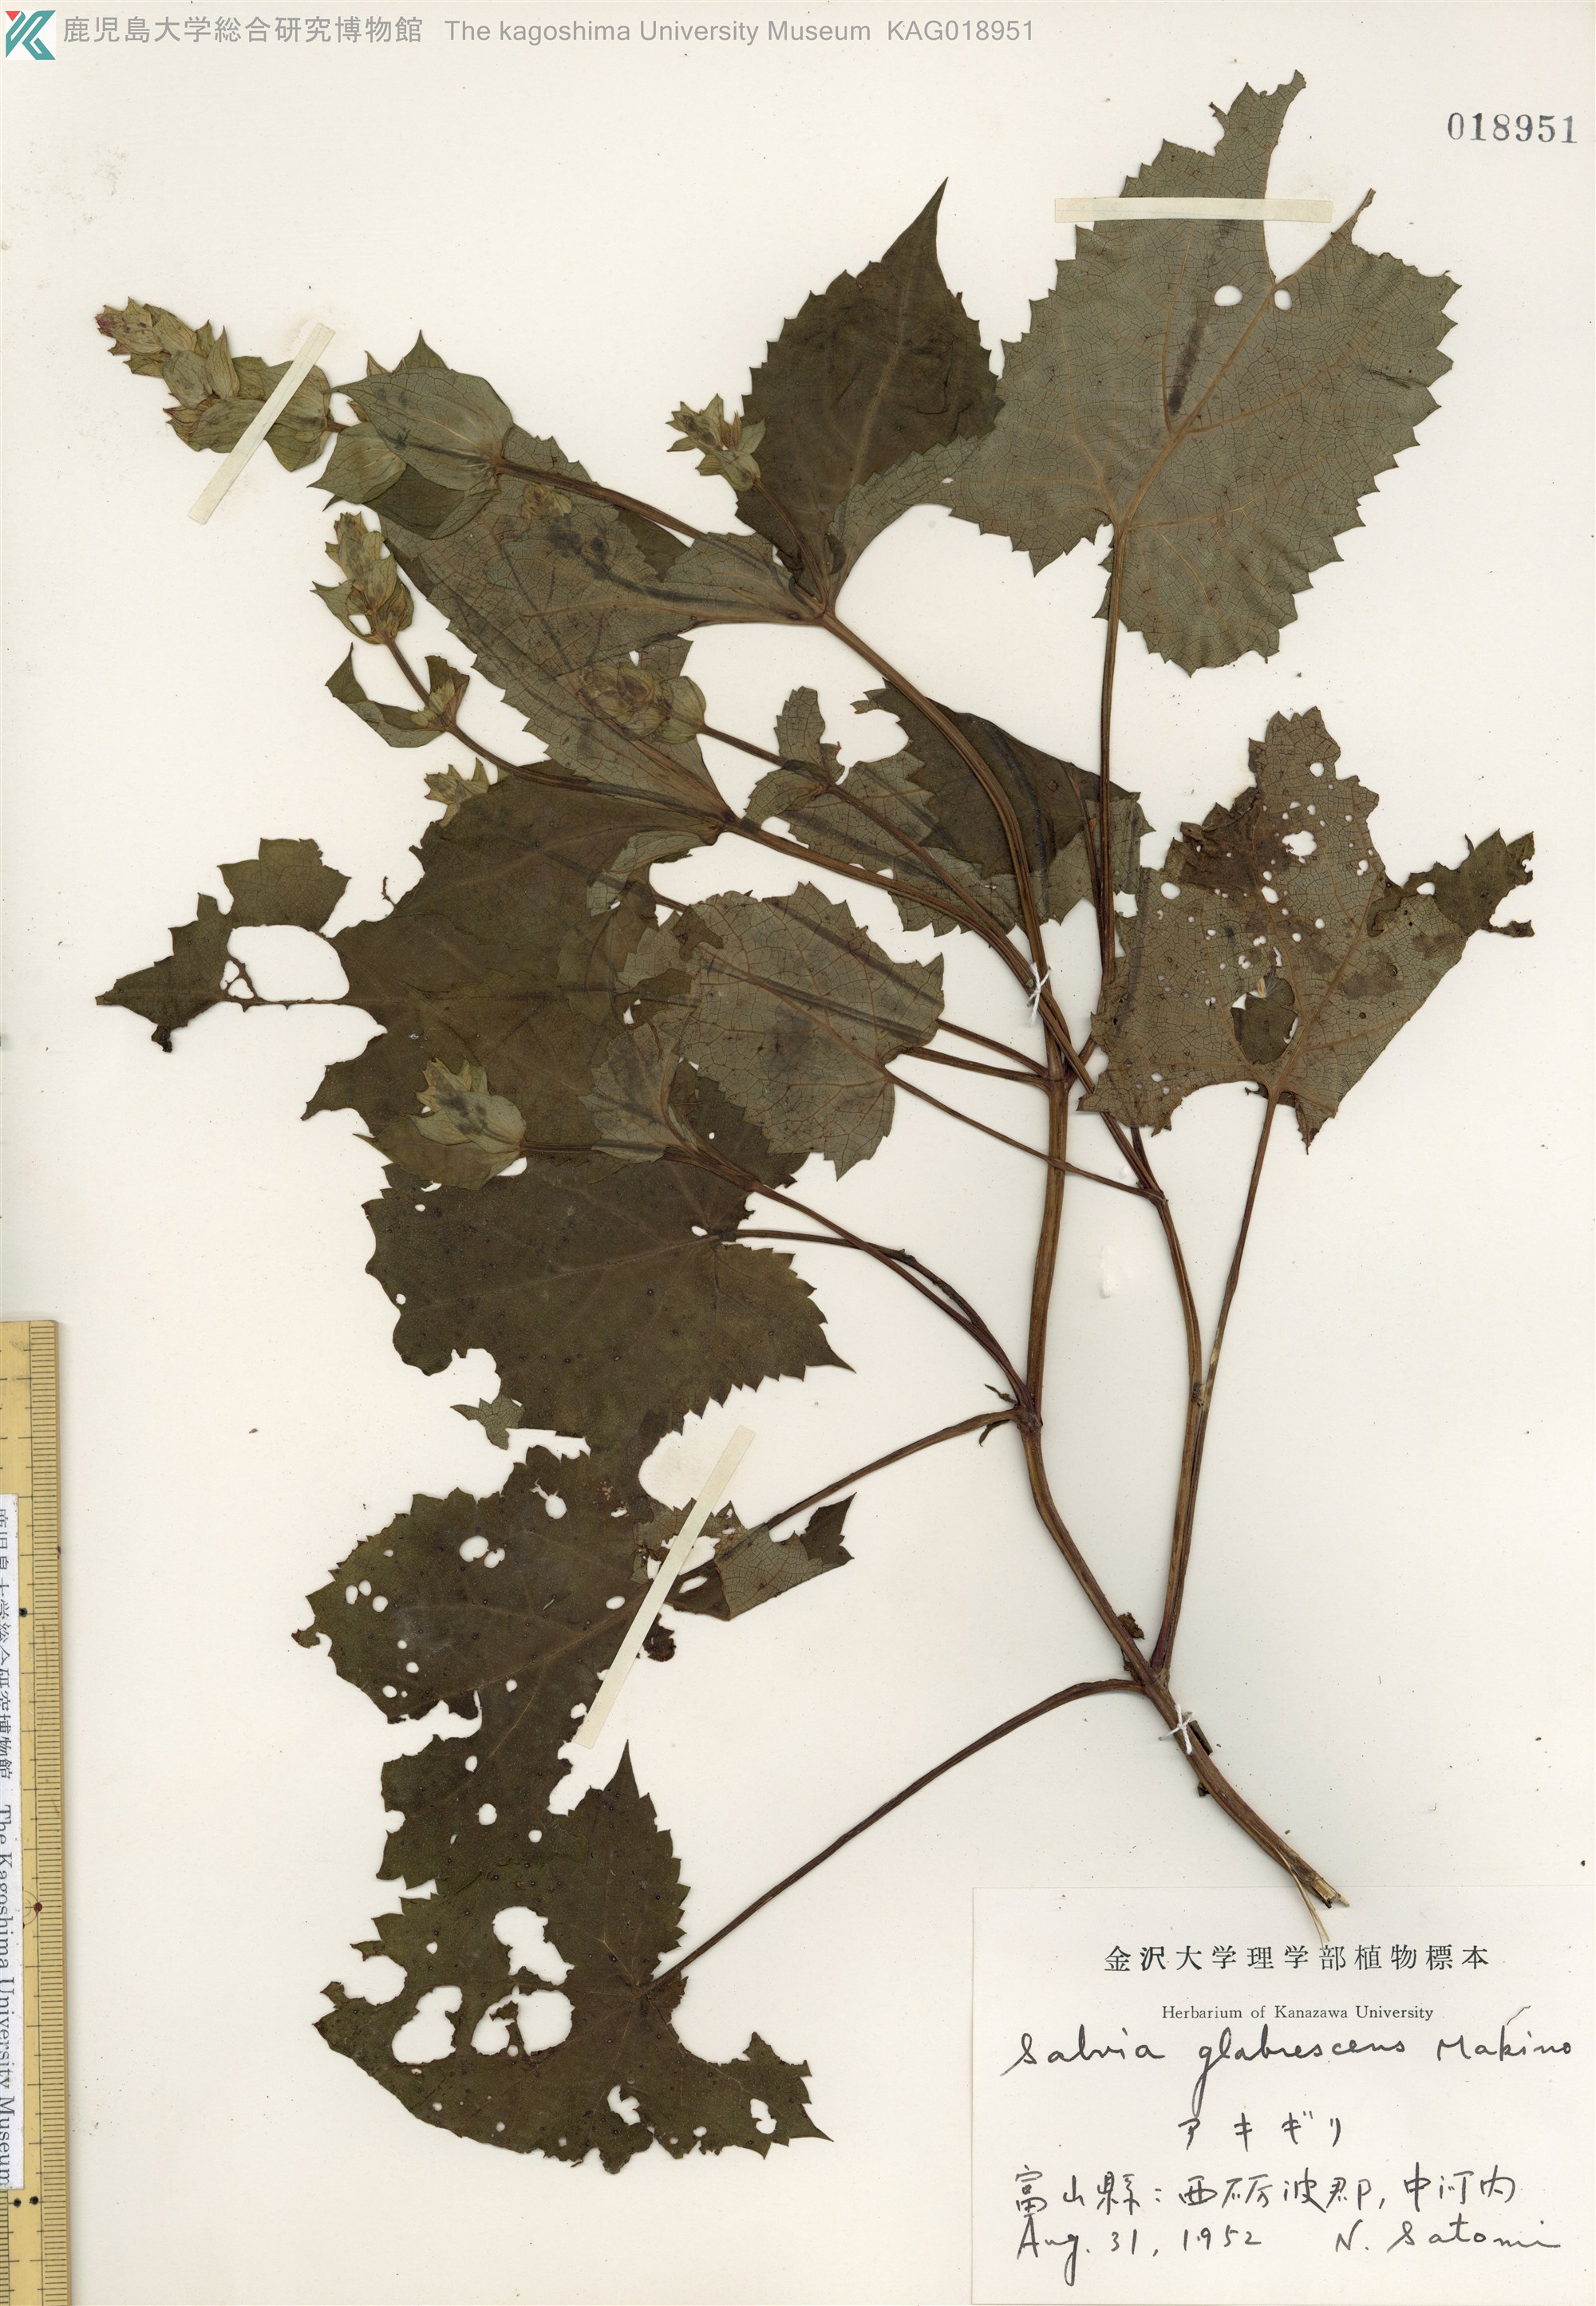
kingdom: Plantae
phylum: Tracheophyta
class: Magnoliopsida
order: Lamiales
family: Lamiaceae
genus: Salvia
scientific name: Salvia glabrescens
